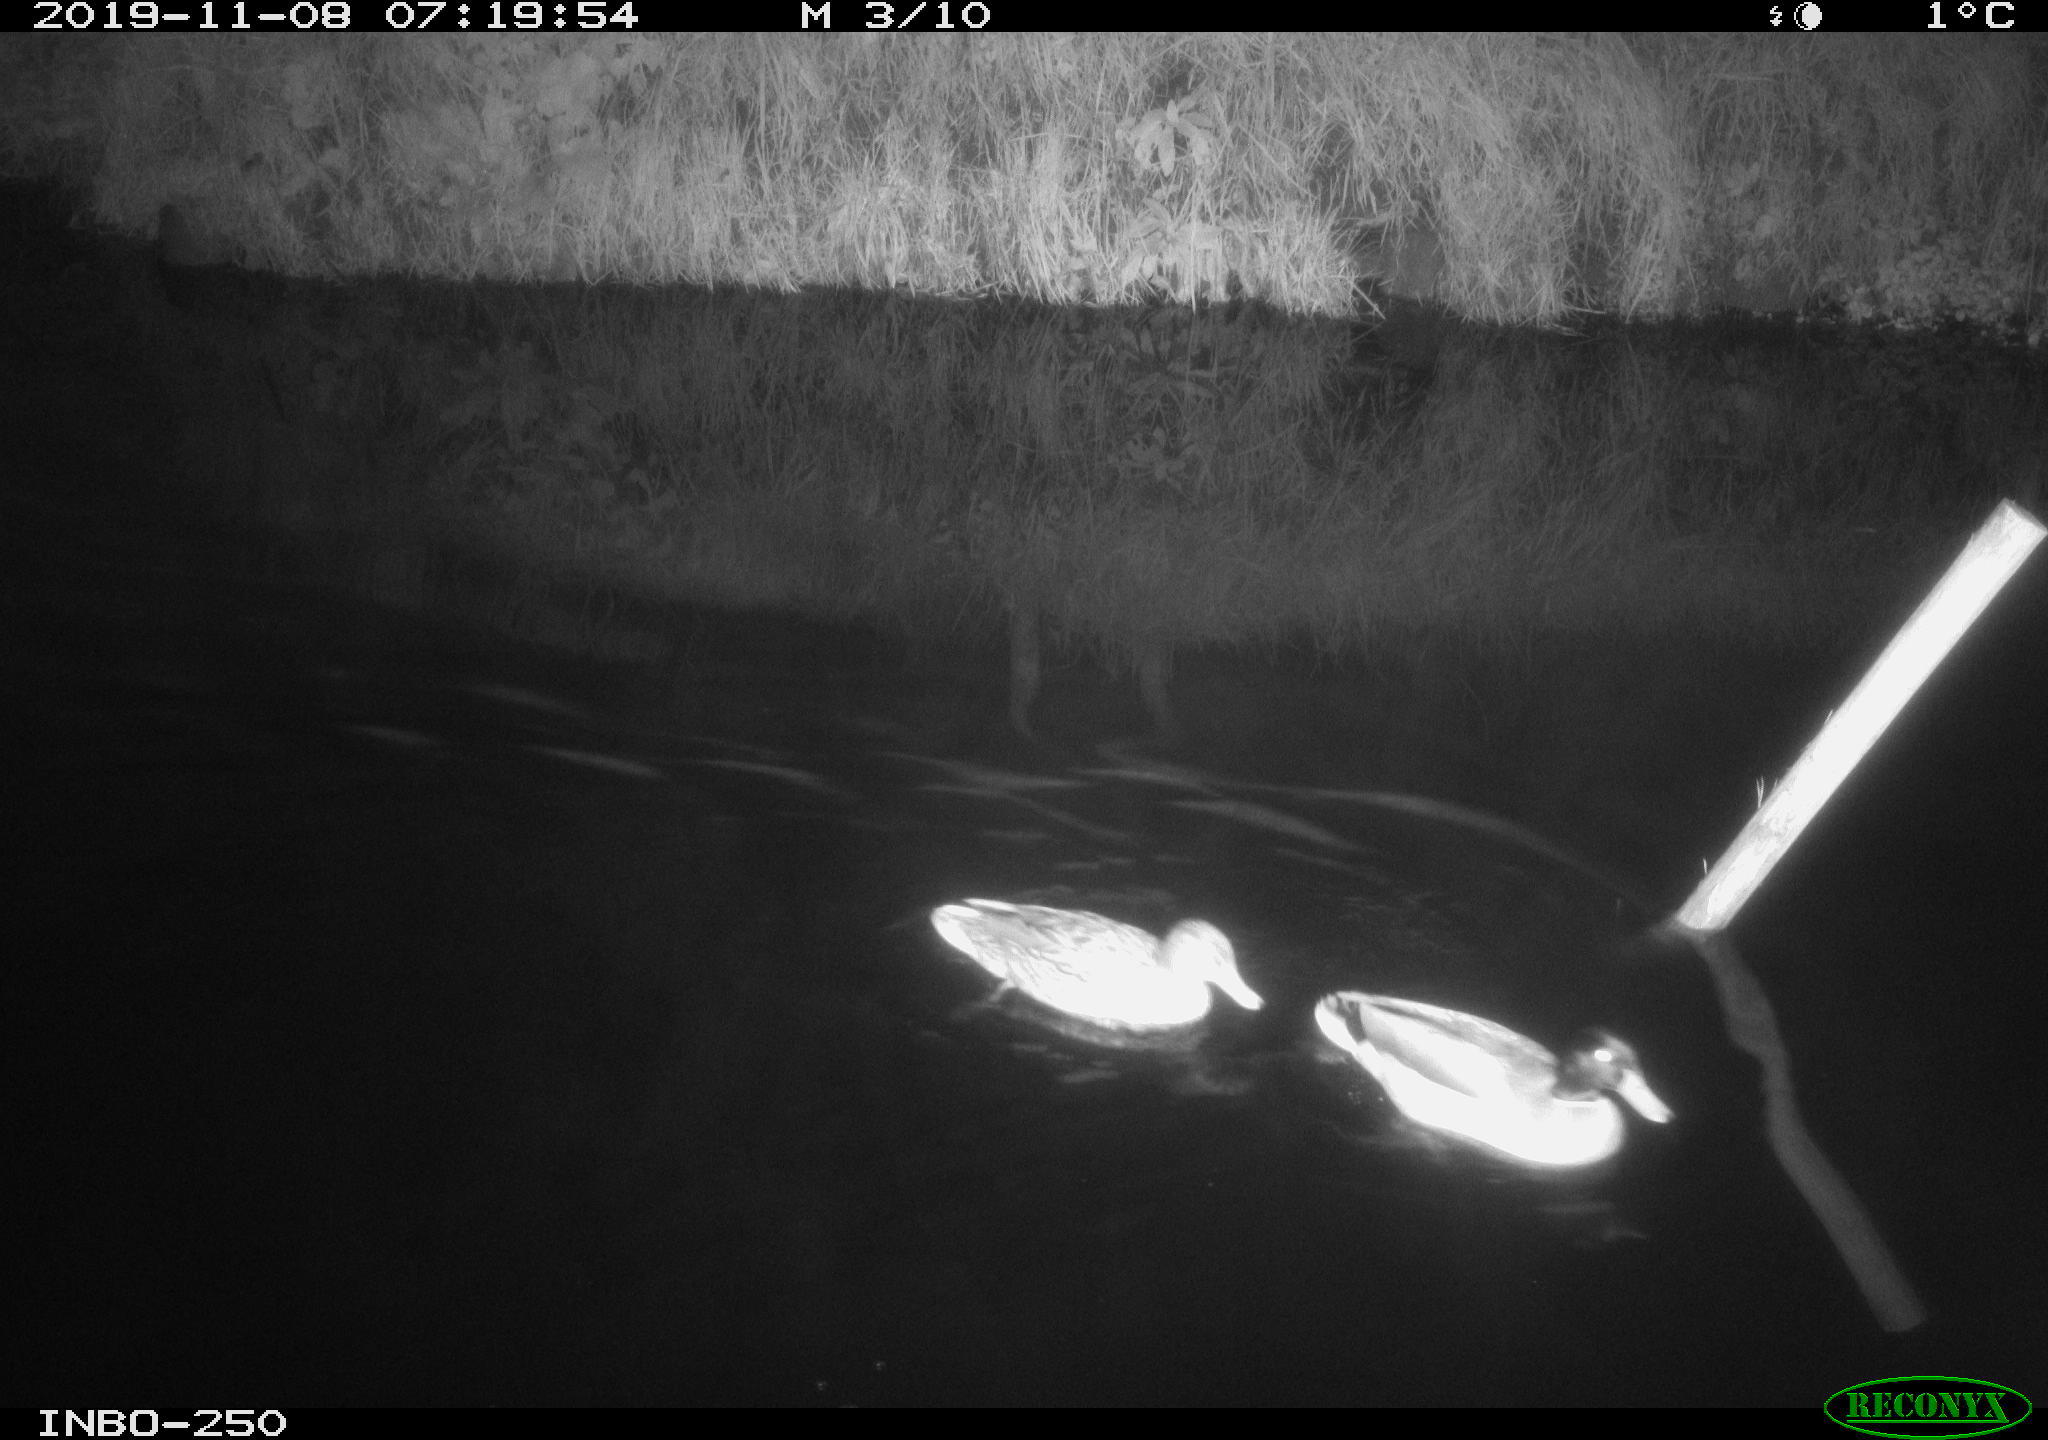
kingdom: Animalia
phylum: Chordata
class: Aves
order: Anseriformes
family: Anatidae
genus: Anas
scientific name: Anas platyrhynchos
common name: Mallard
